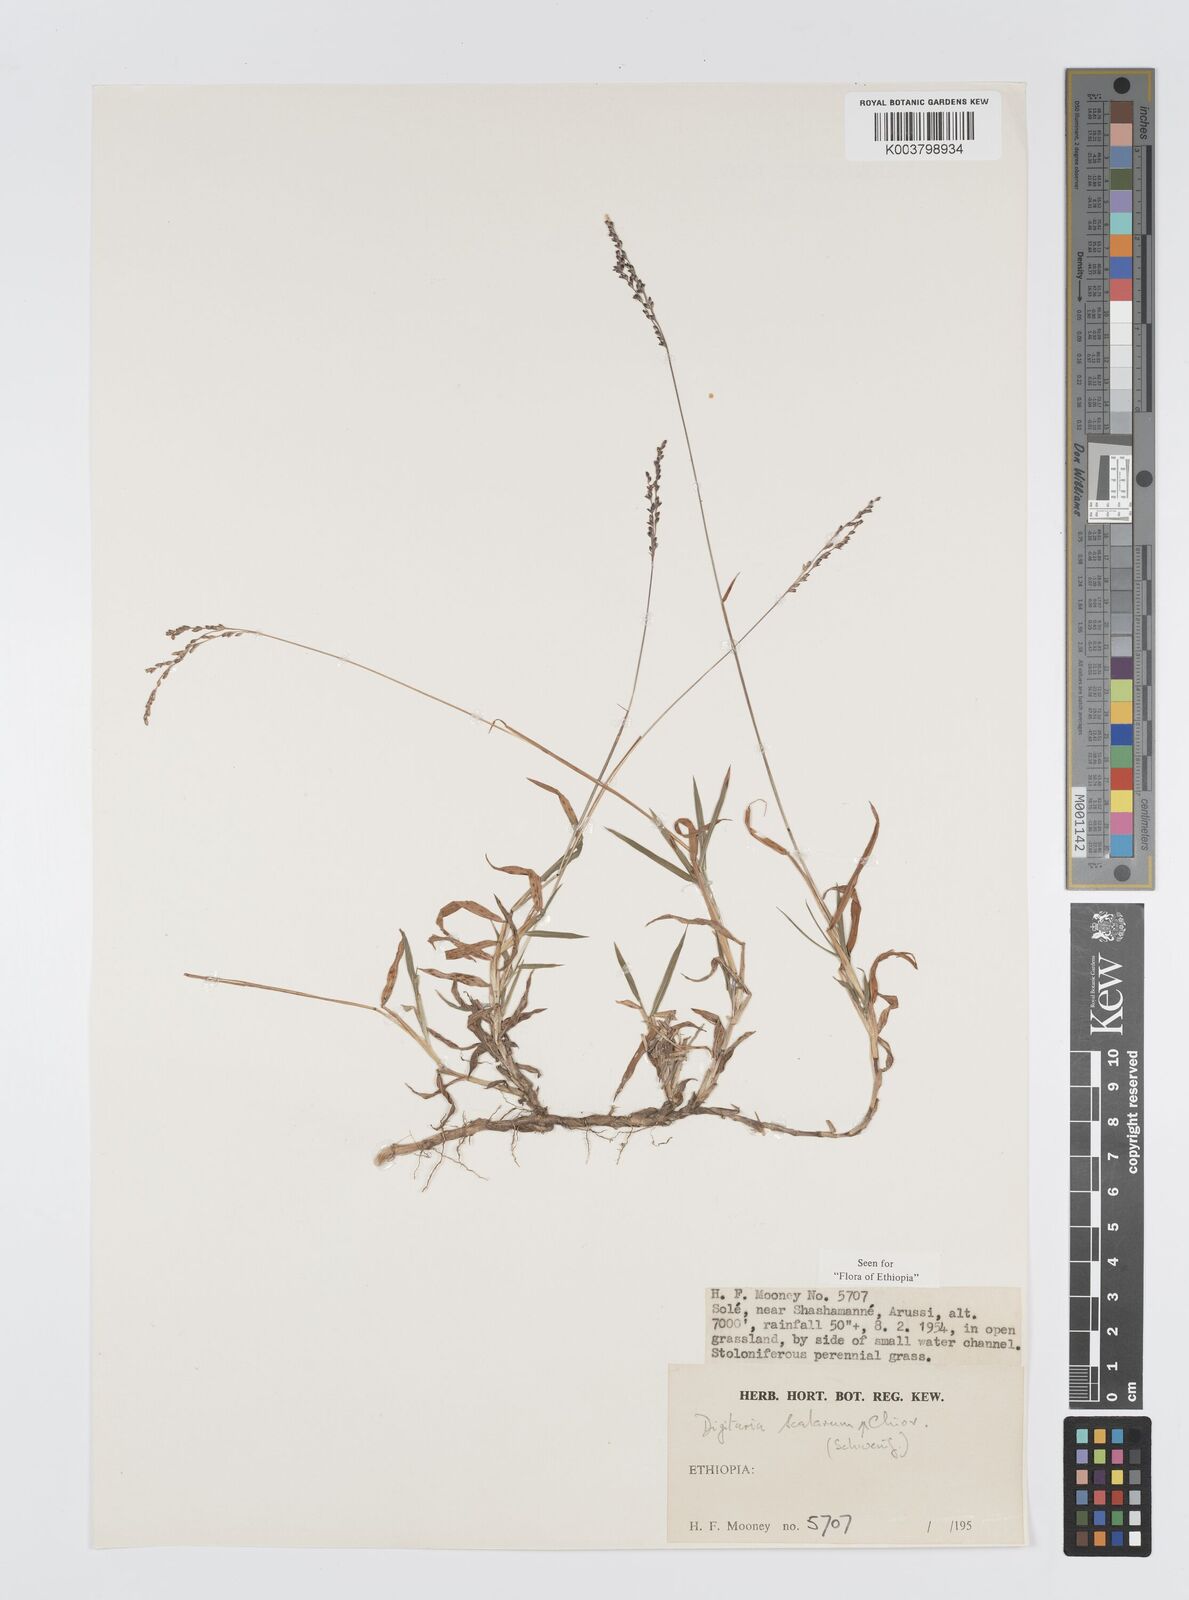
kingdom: Plantae
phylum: Tracheophyta
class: Liliopsida
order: Poales
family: Poaceae
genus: Digitaria
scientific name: Digitaria abyssinica
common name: African couchgrass
